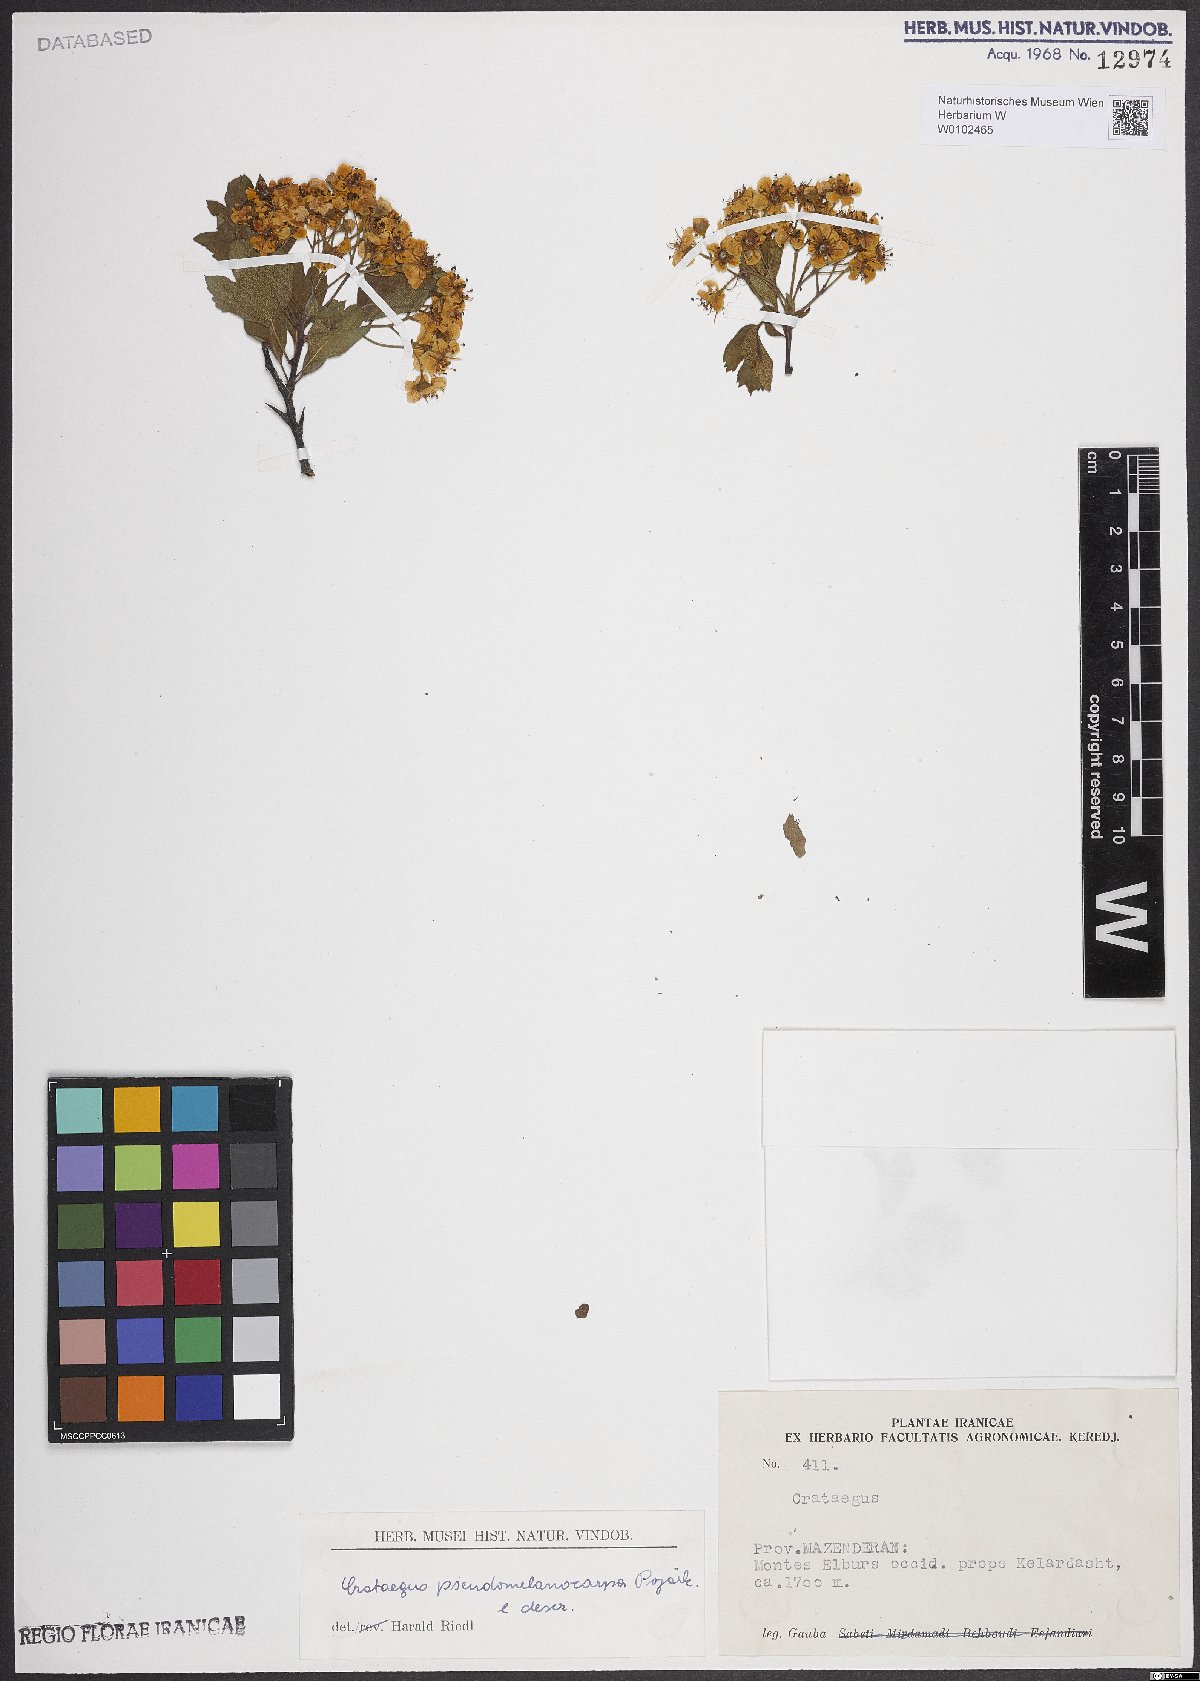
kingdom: Plantae
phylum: Tracheophyta
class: Magnoliopsida
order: Rosales
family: Rosaceae
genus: Crataegus
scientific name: Crataegus pentagyna
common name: Small-flowered black hawthorn
